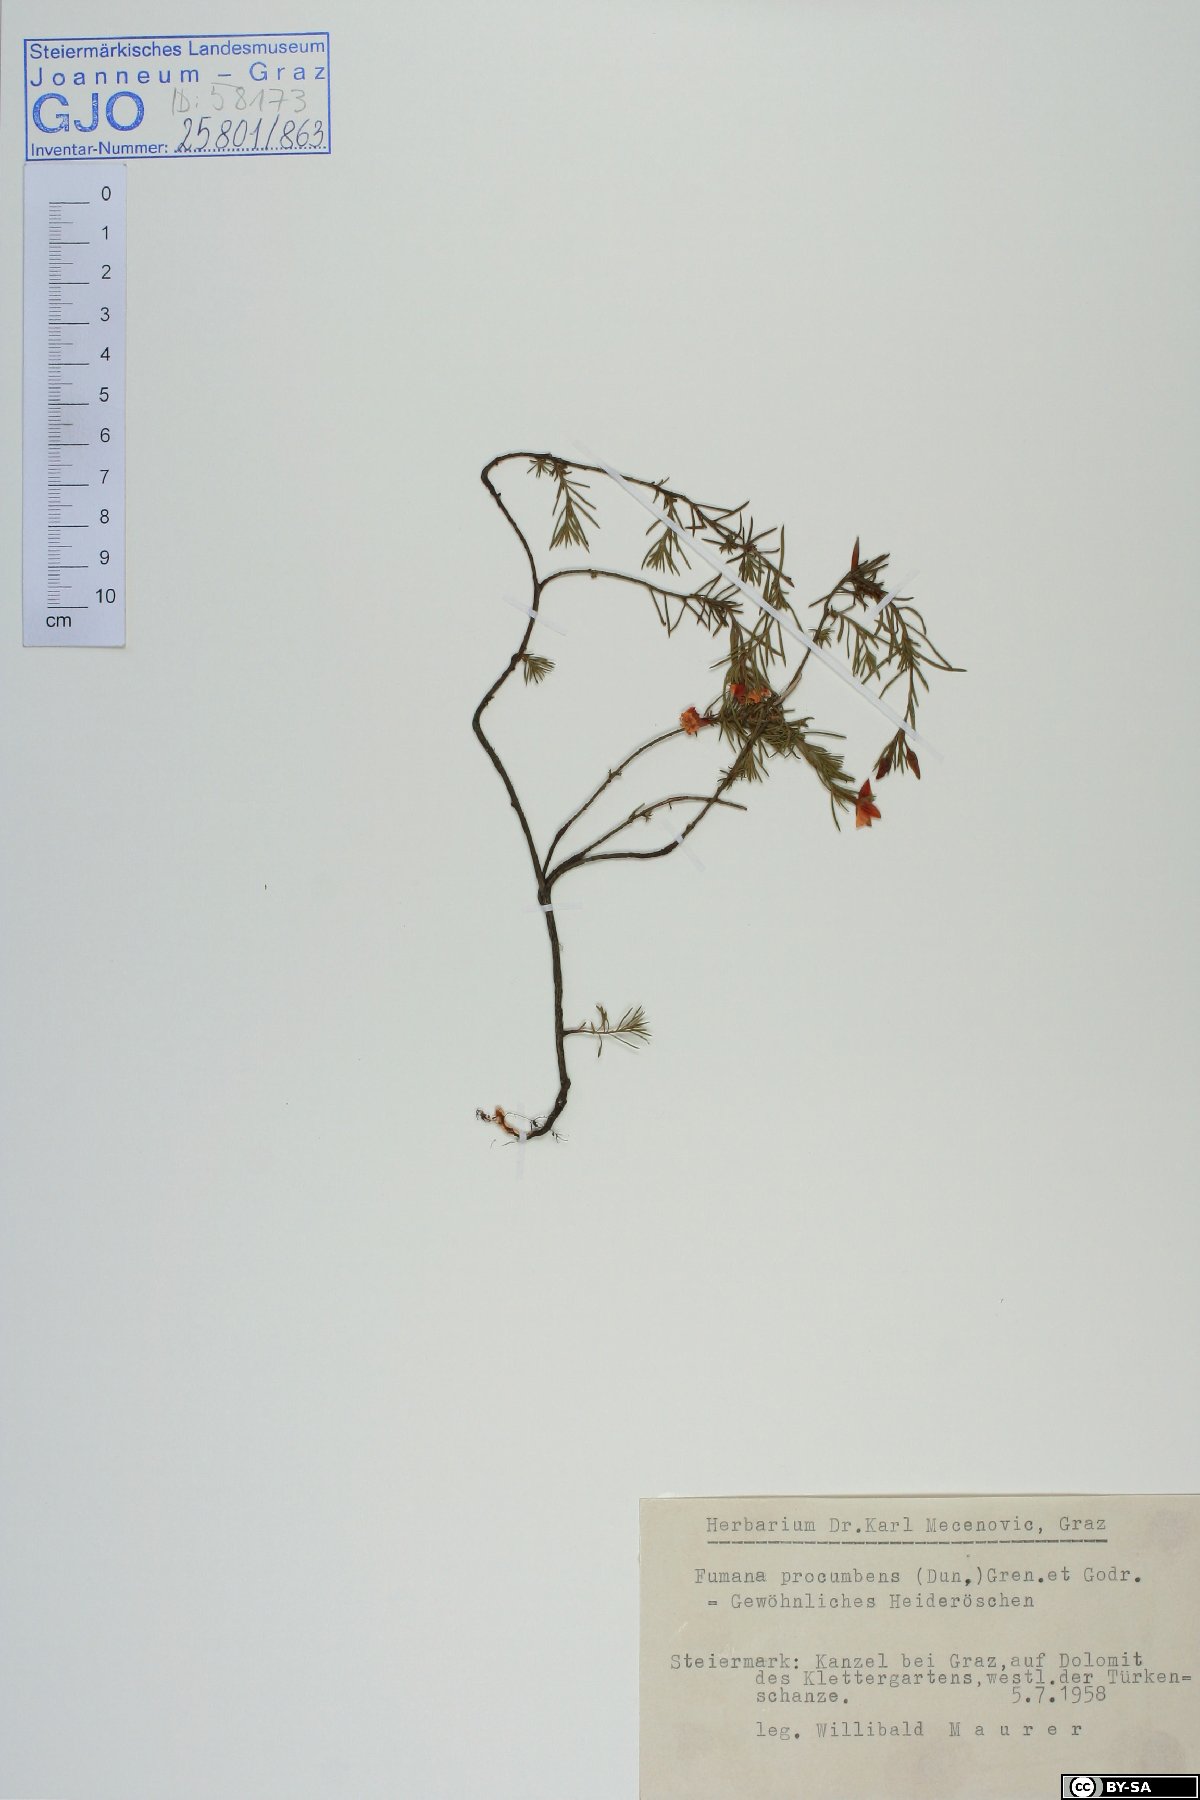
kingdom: Plantae
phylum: Tracheophyta
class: Magnoliopsida
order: Malvales
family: Cistaceae
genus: Fumana
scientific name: Fumana procumbens
